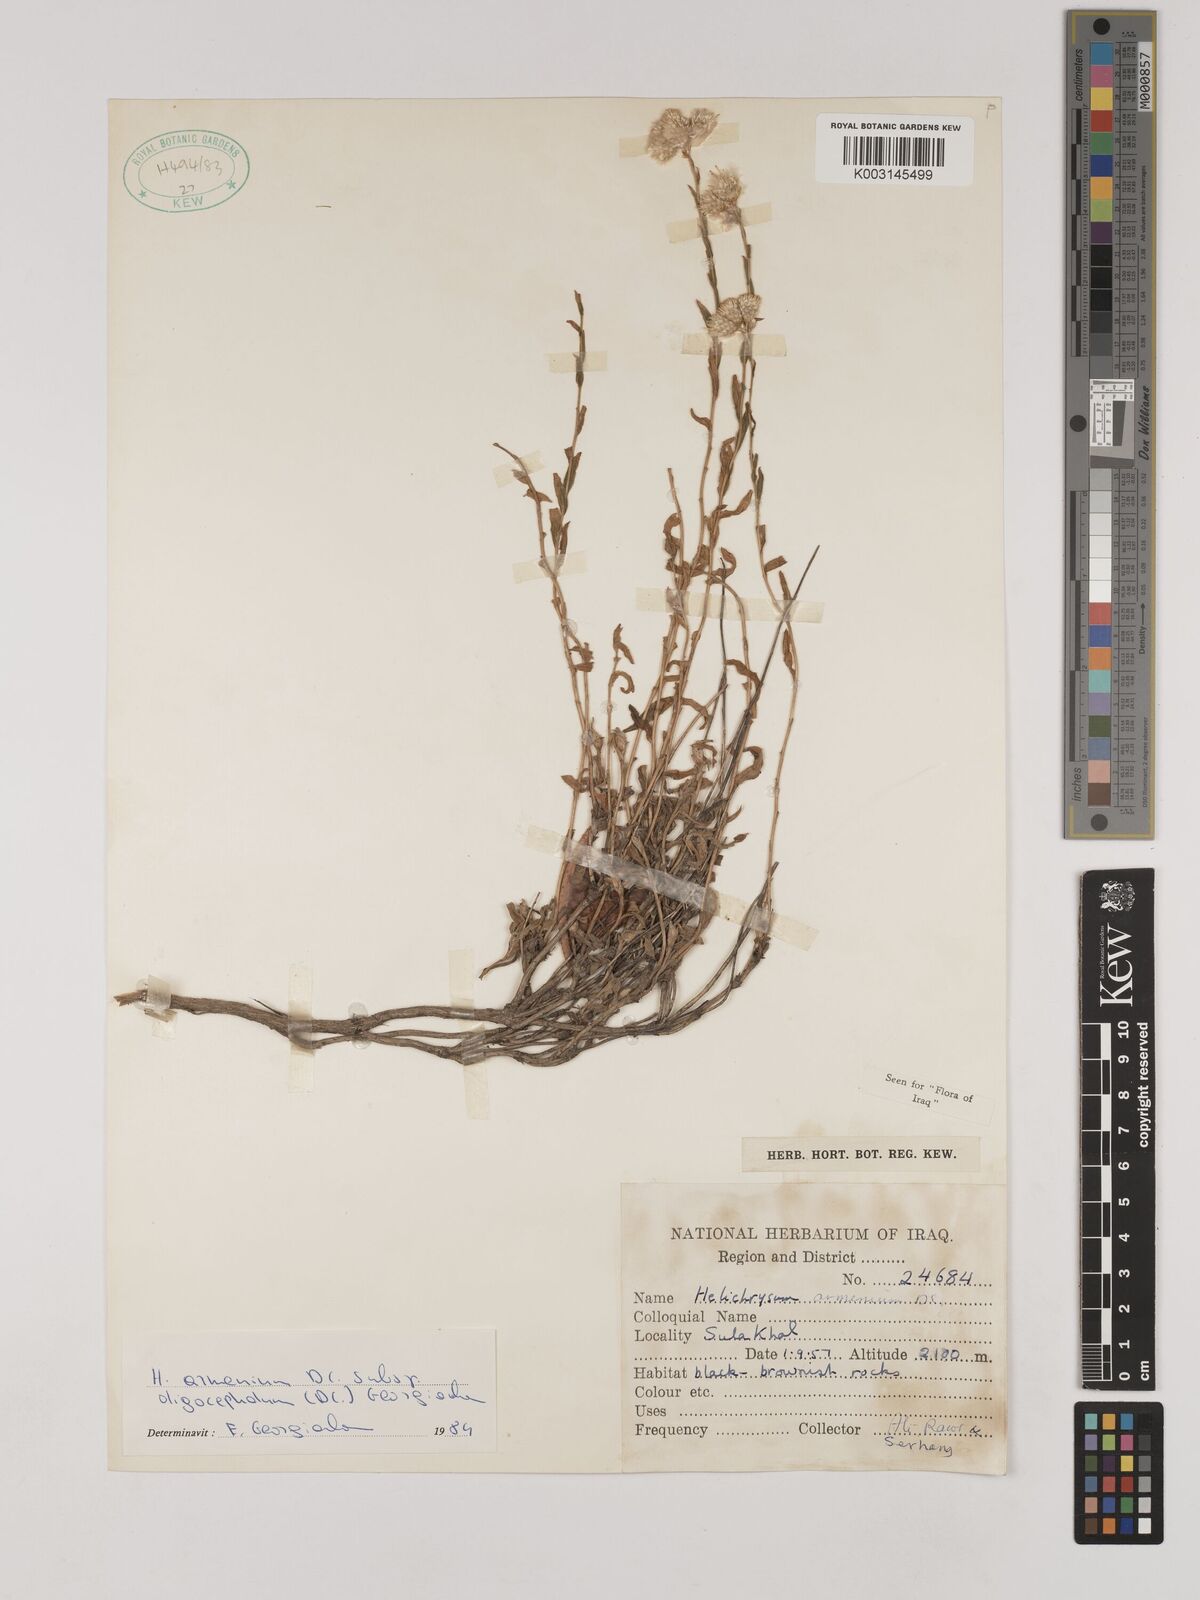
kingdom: Plantae
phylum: Tracheophyta
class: Magnoliopsida
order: Asterales
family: Asteraceae
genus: Helichrysum
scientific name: Helichrysum armenium
